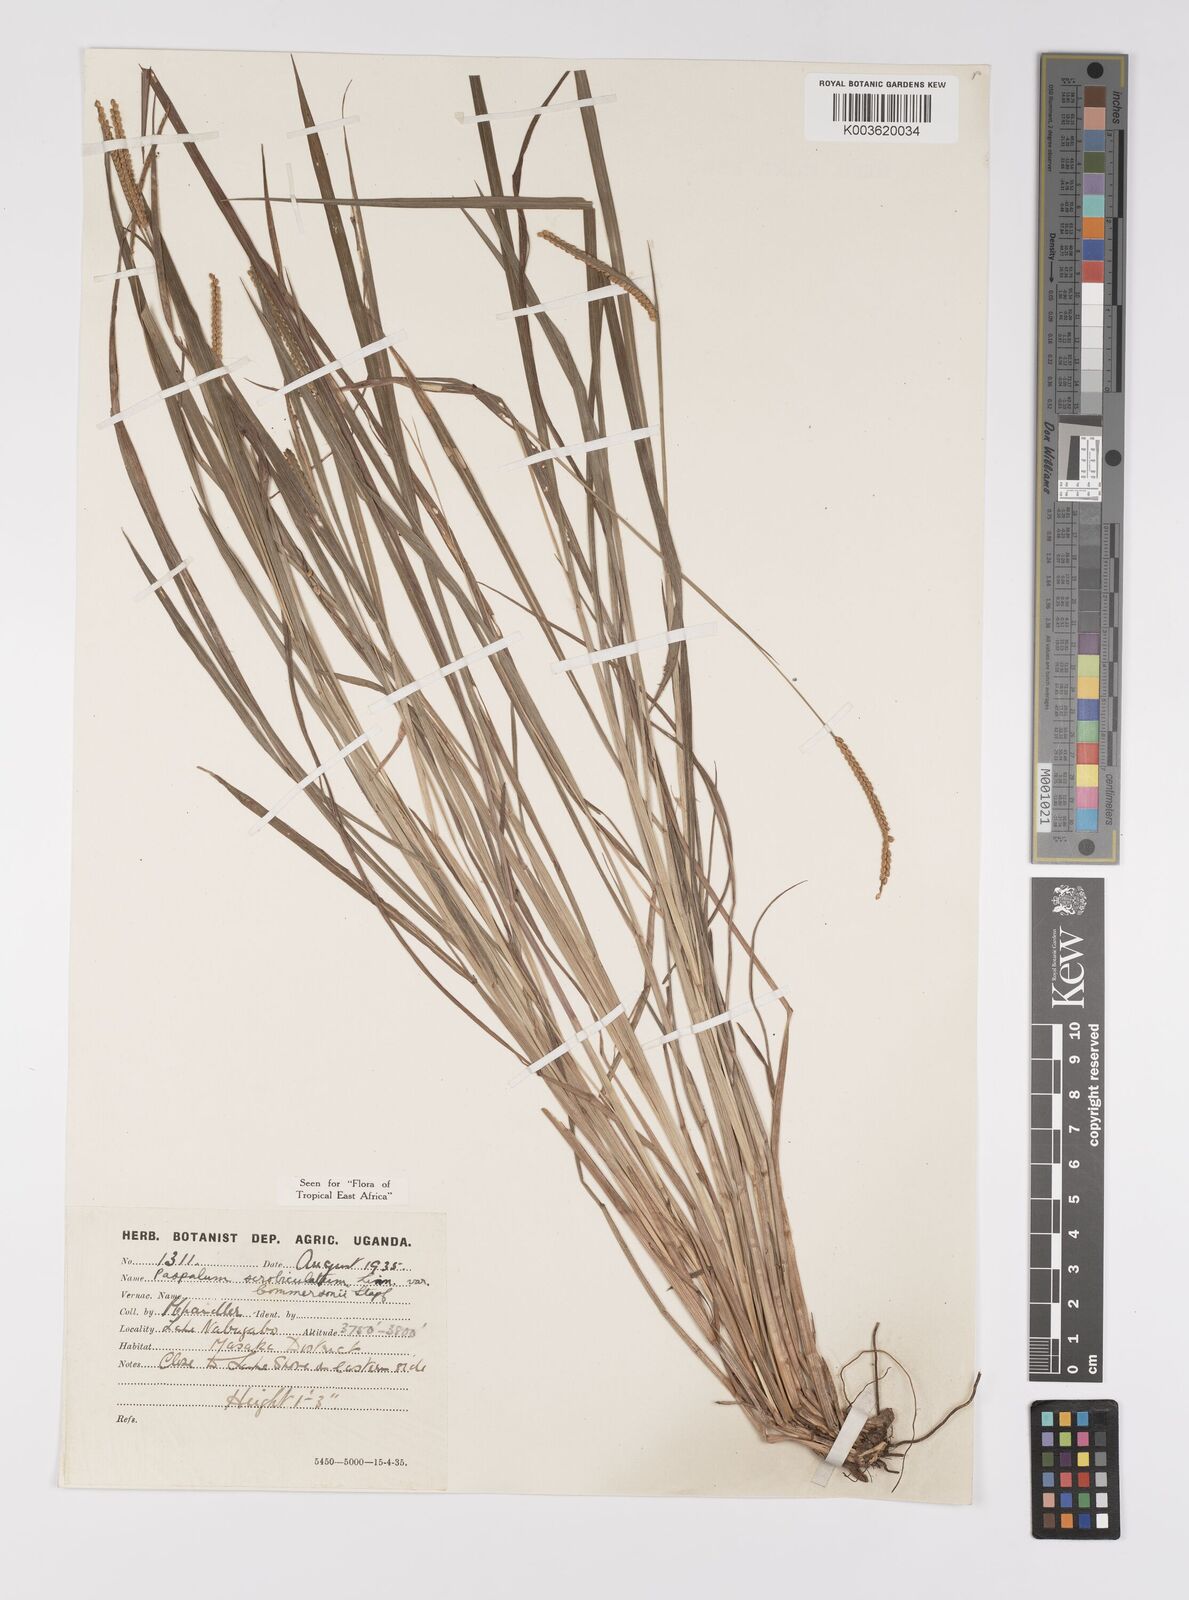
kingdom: Plantae
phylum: Tracheophyta
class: Liliopsida
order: Poales
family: Poaceae
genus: Paspalum
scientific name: Paspalum scrobiculatum
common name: Kodo millet
